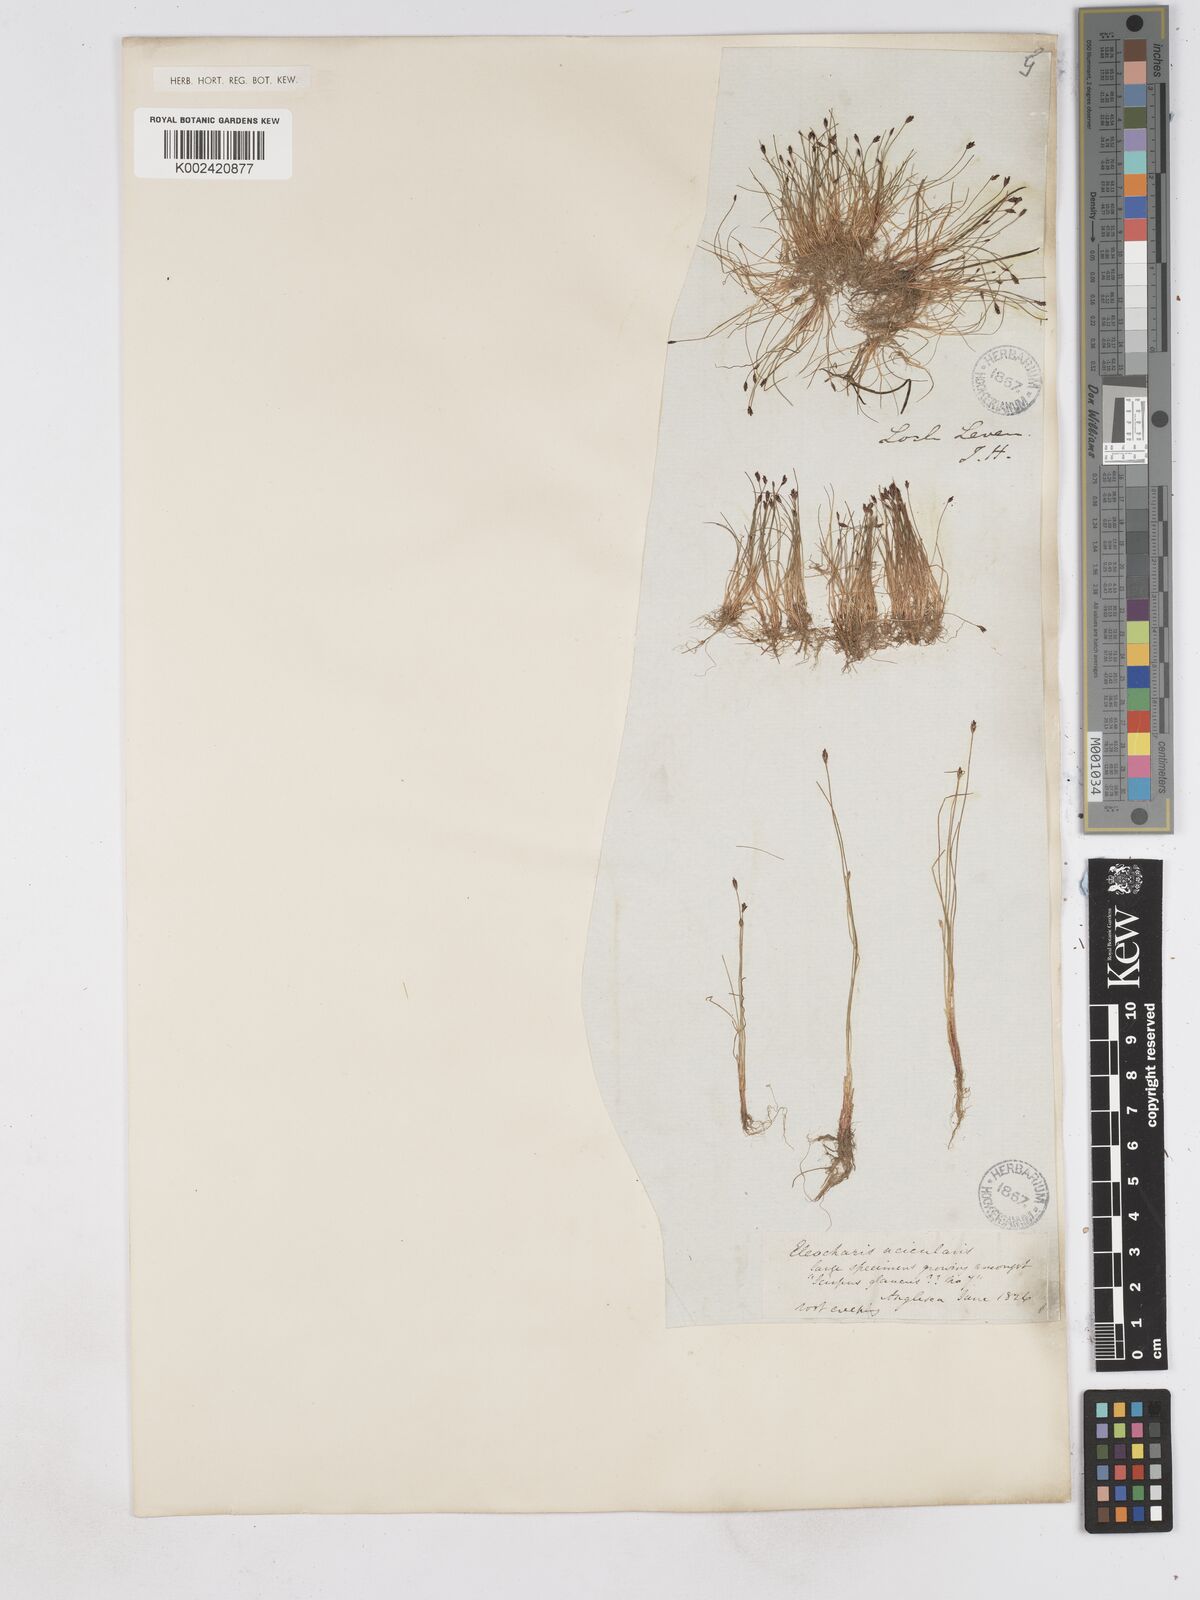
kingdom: Plantae
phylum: Tracheophyta
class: Liliopsida
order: Poales
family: Cyperaceae
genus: Eleocharis
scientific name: Eleocharis acicularis
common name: Needle spike-rush
